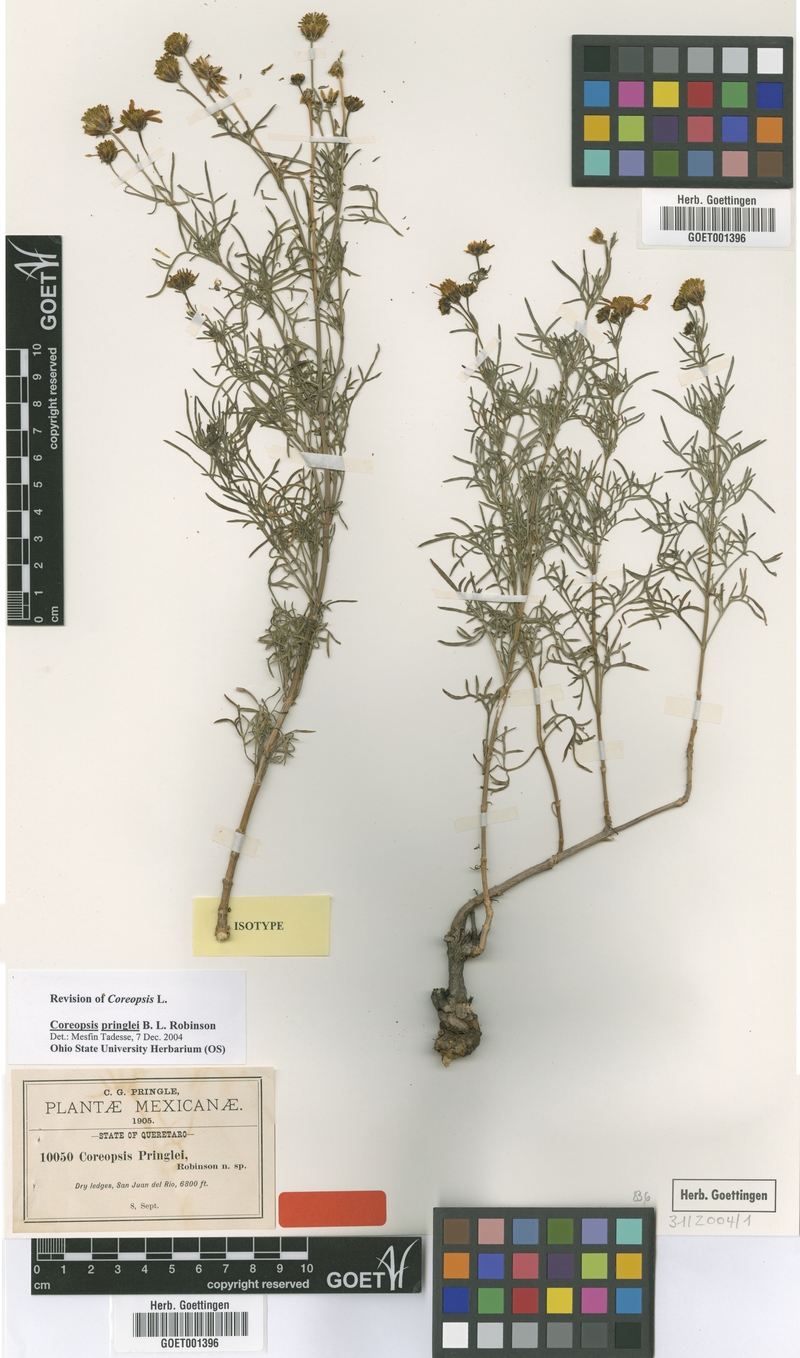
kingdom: Plantae
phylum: Tracheophyta
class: Magnoliopsida
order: Asterales
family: Asteraceae
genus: Coreopsis
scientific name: Coreopsis pringlei
